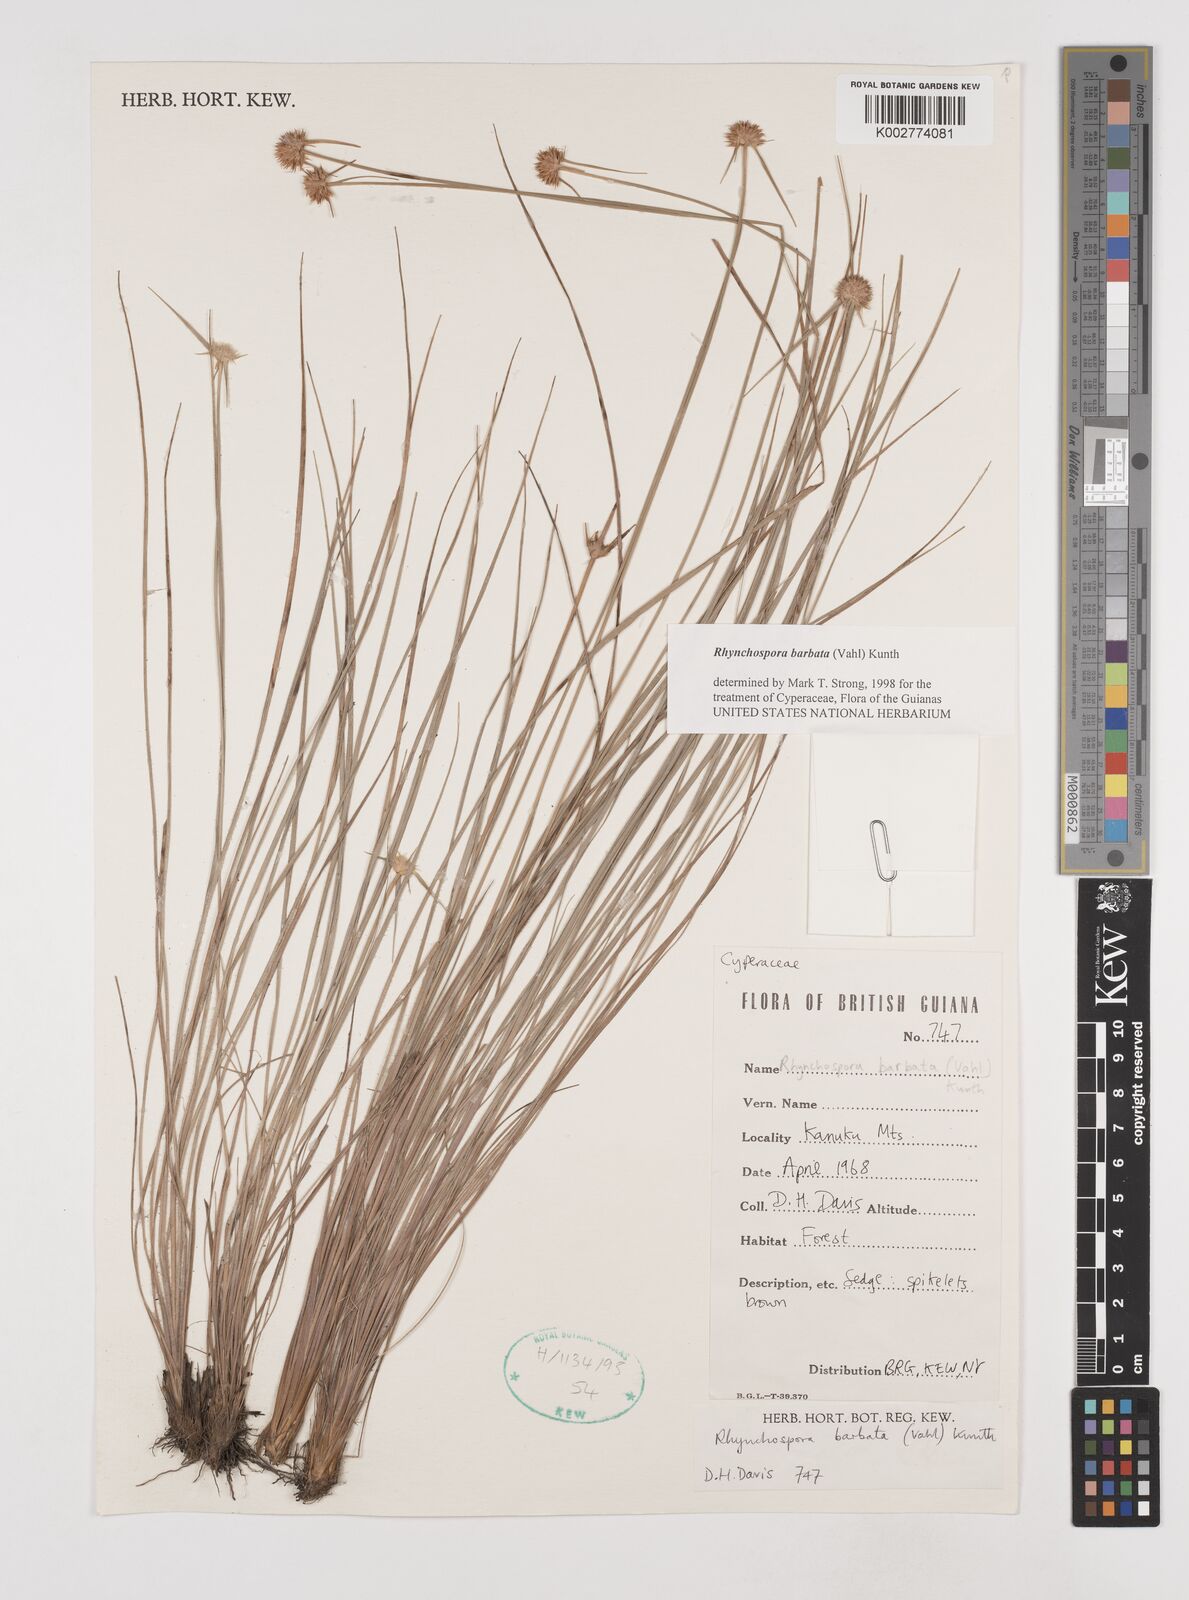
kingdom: Plantae
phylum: Tracheophyta
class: Liliopsida
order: Poales
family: Cyperaceae
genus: Rhynchospora
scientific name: Rhynchospora barbata
